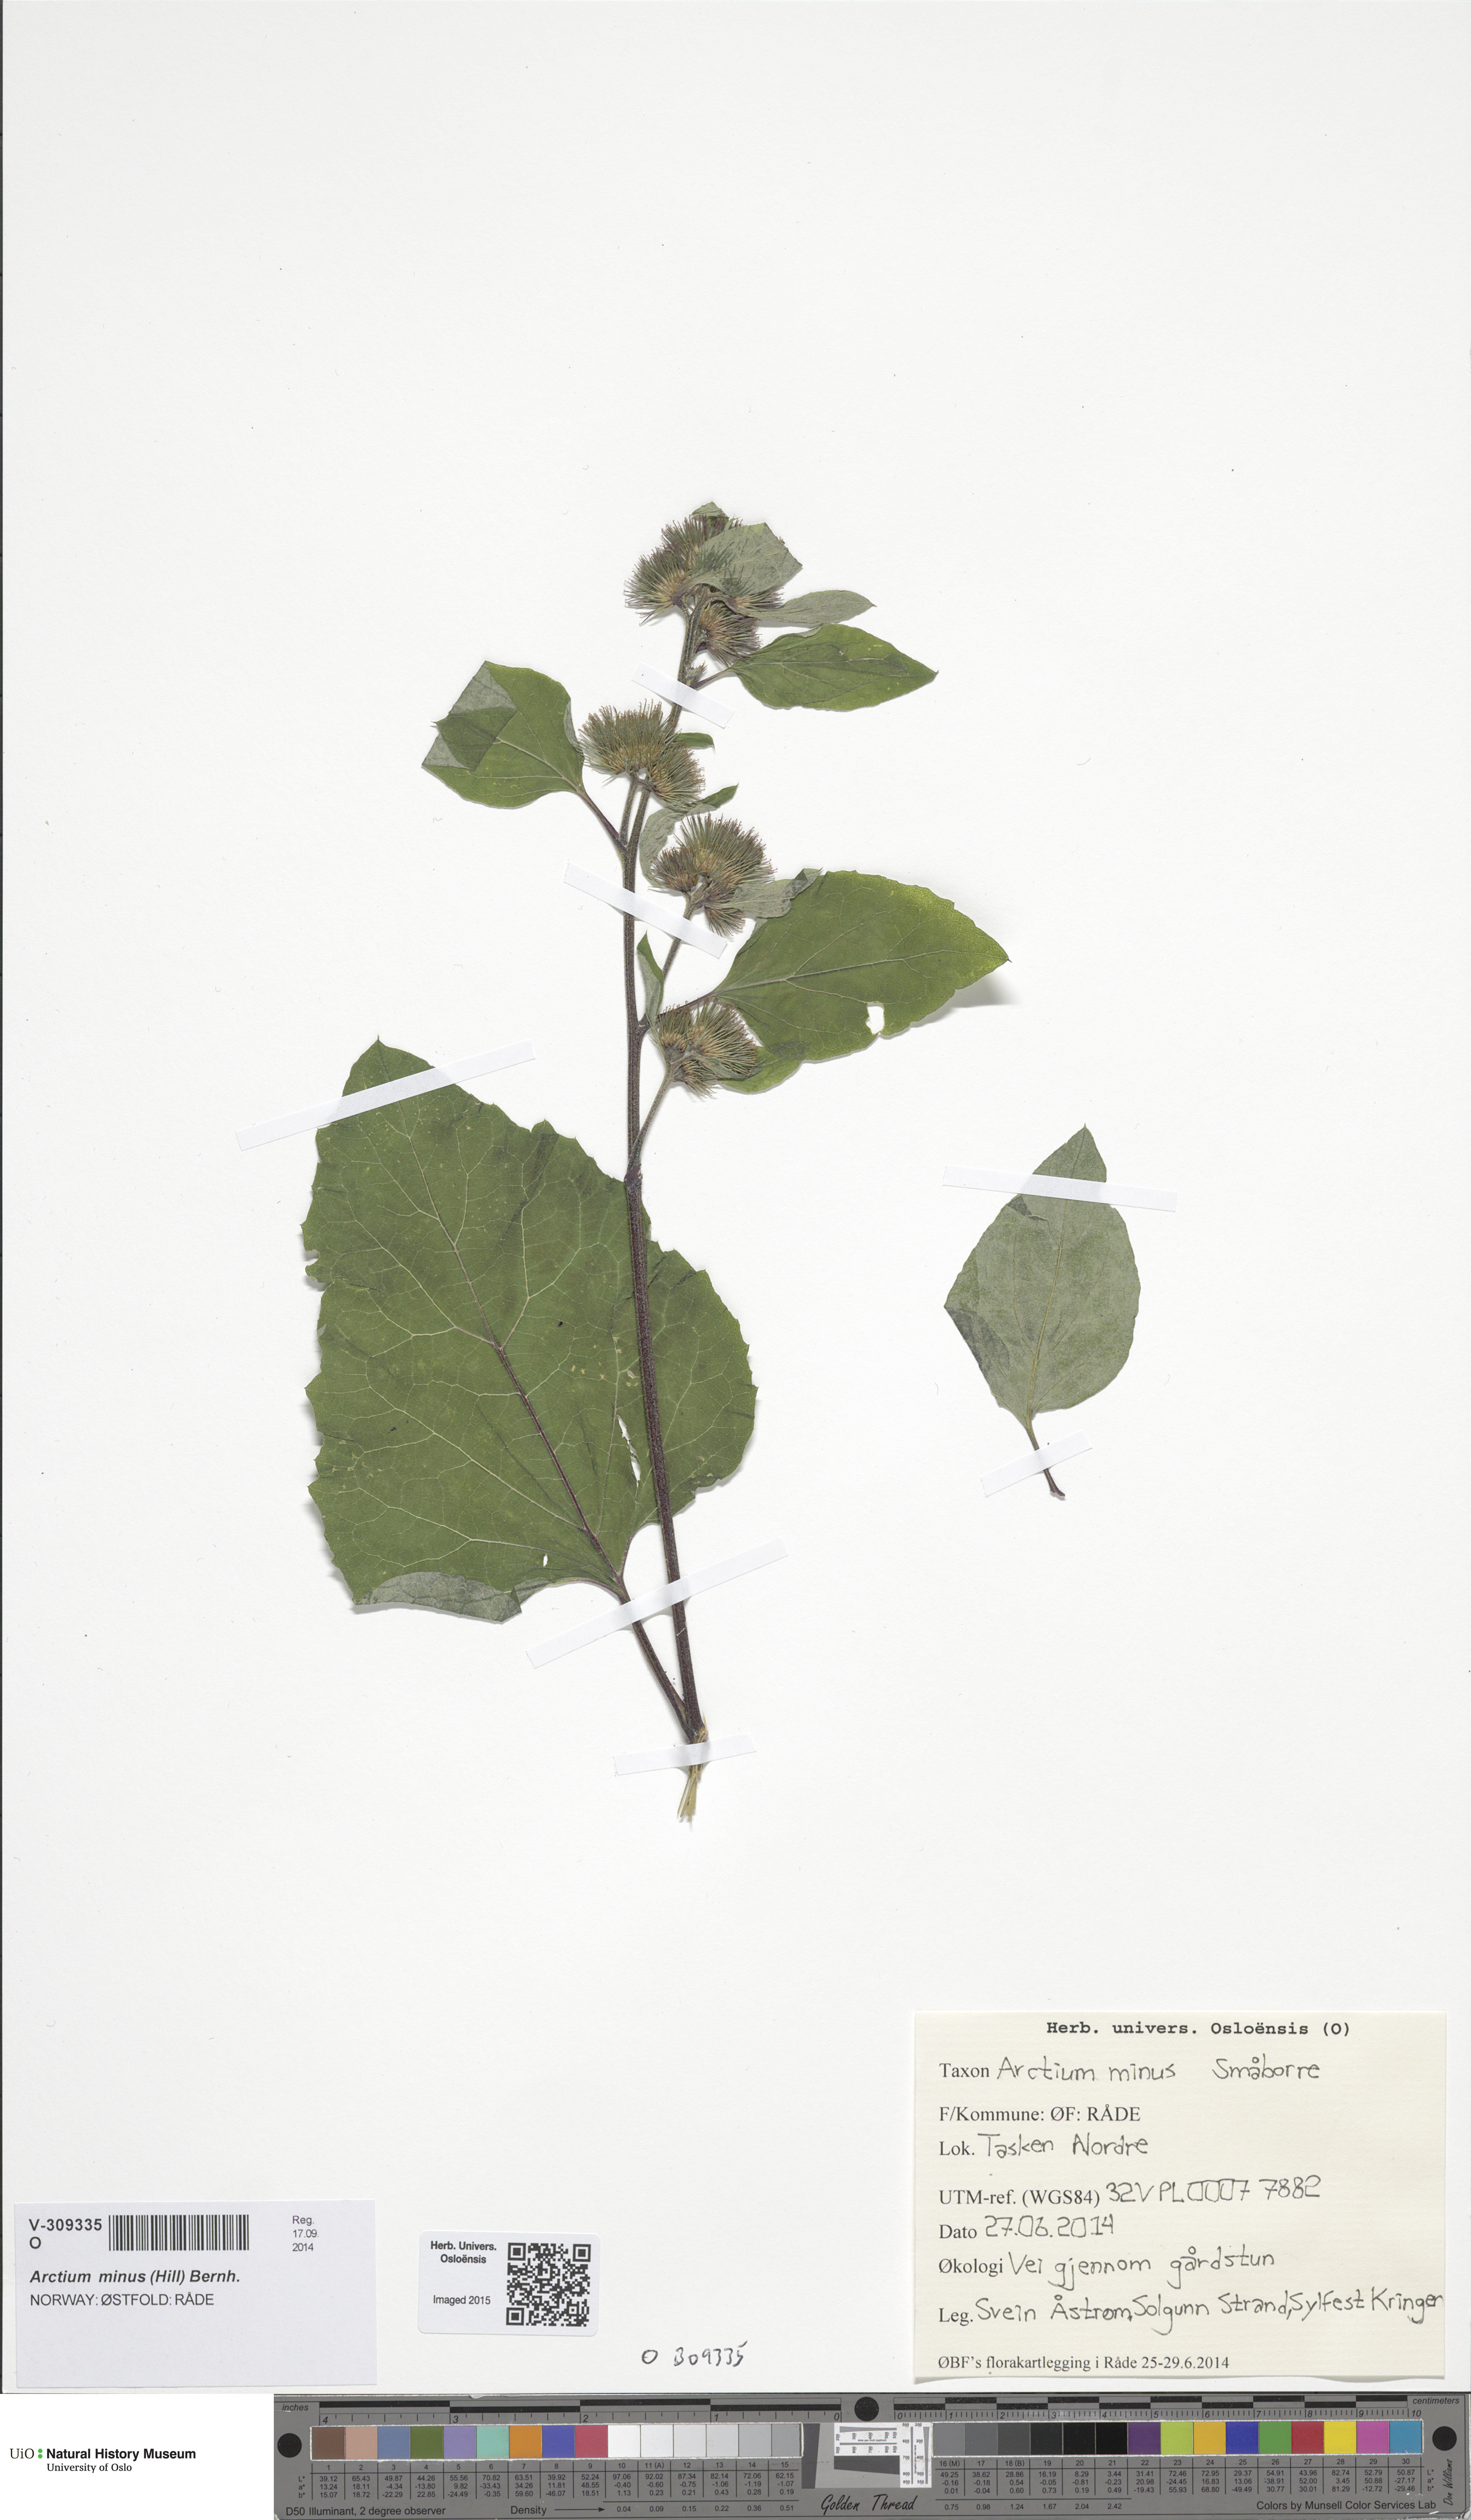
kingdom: Plantae
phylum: Tracheophyta
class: Magnoliopsida
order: Asterales
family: Asteraceae
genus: Arctium
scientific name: Arctium minus
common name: Lesser burdock
